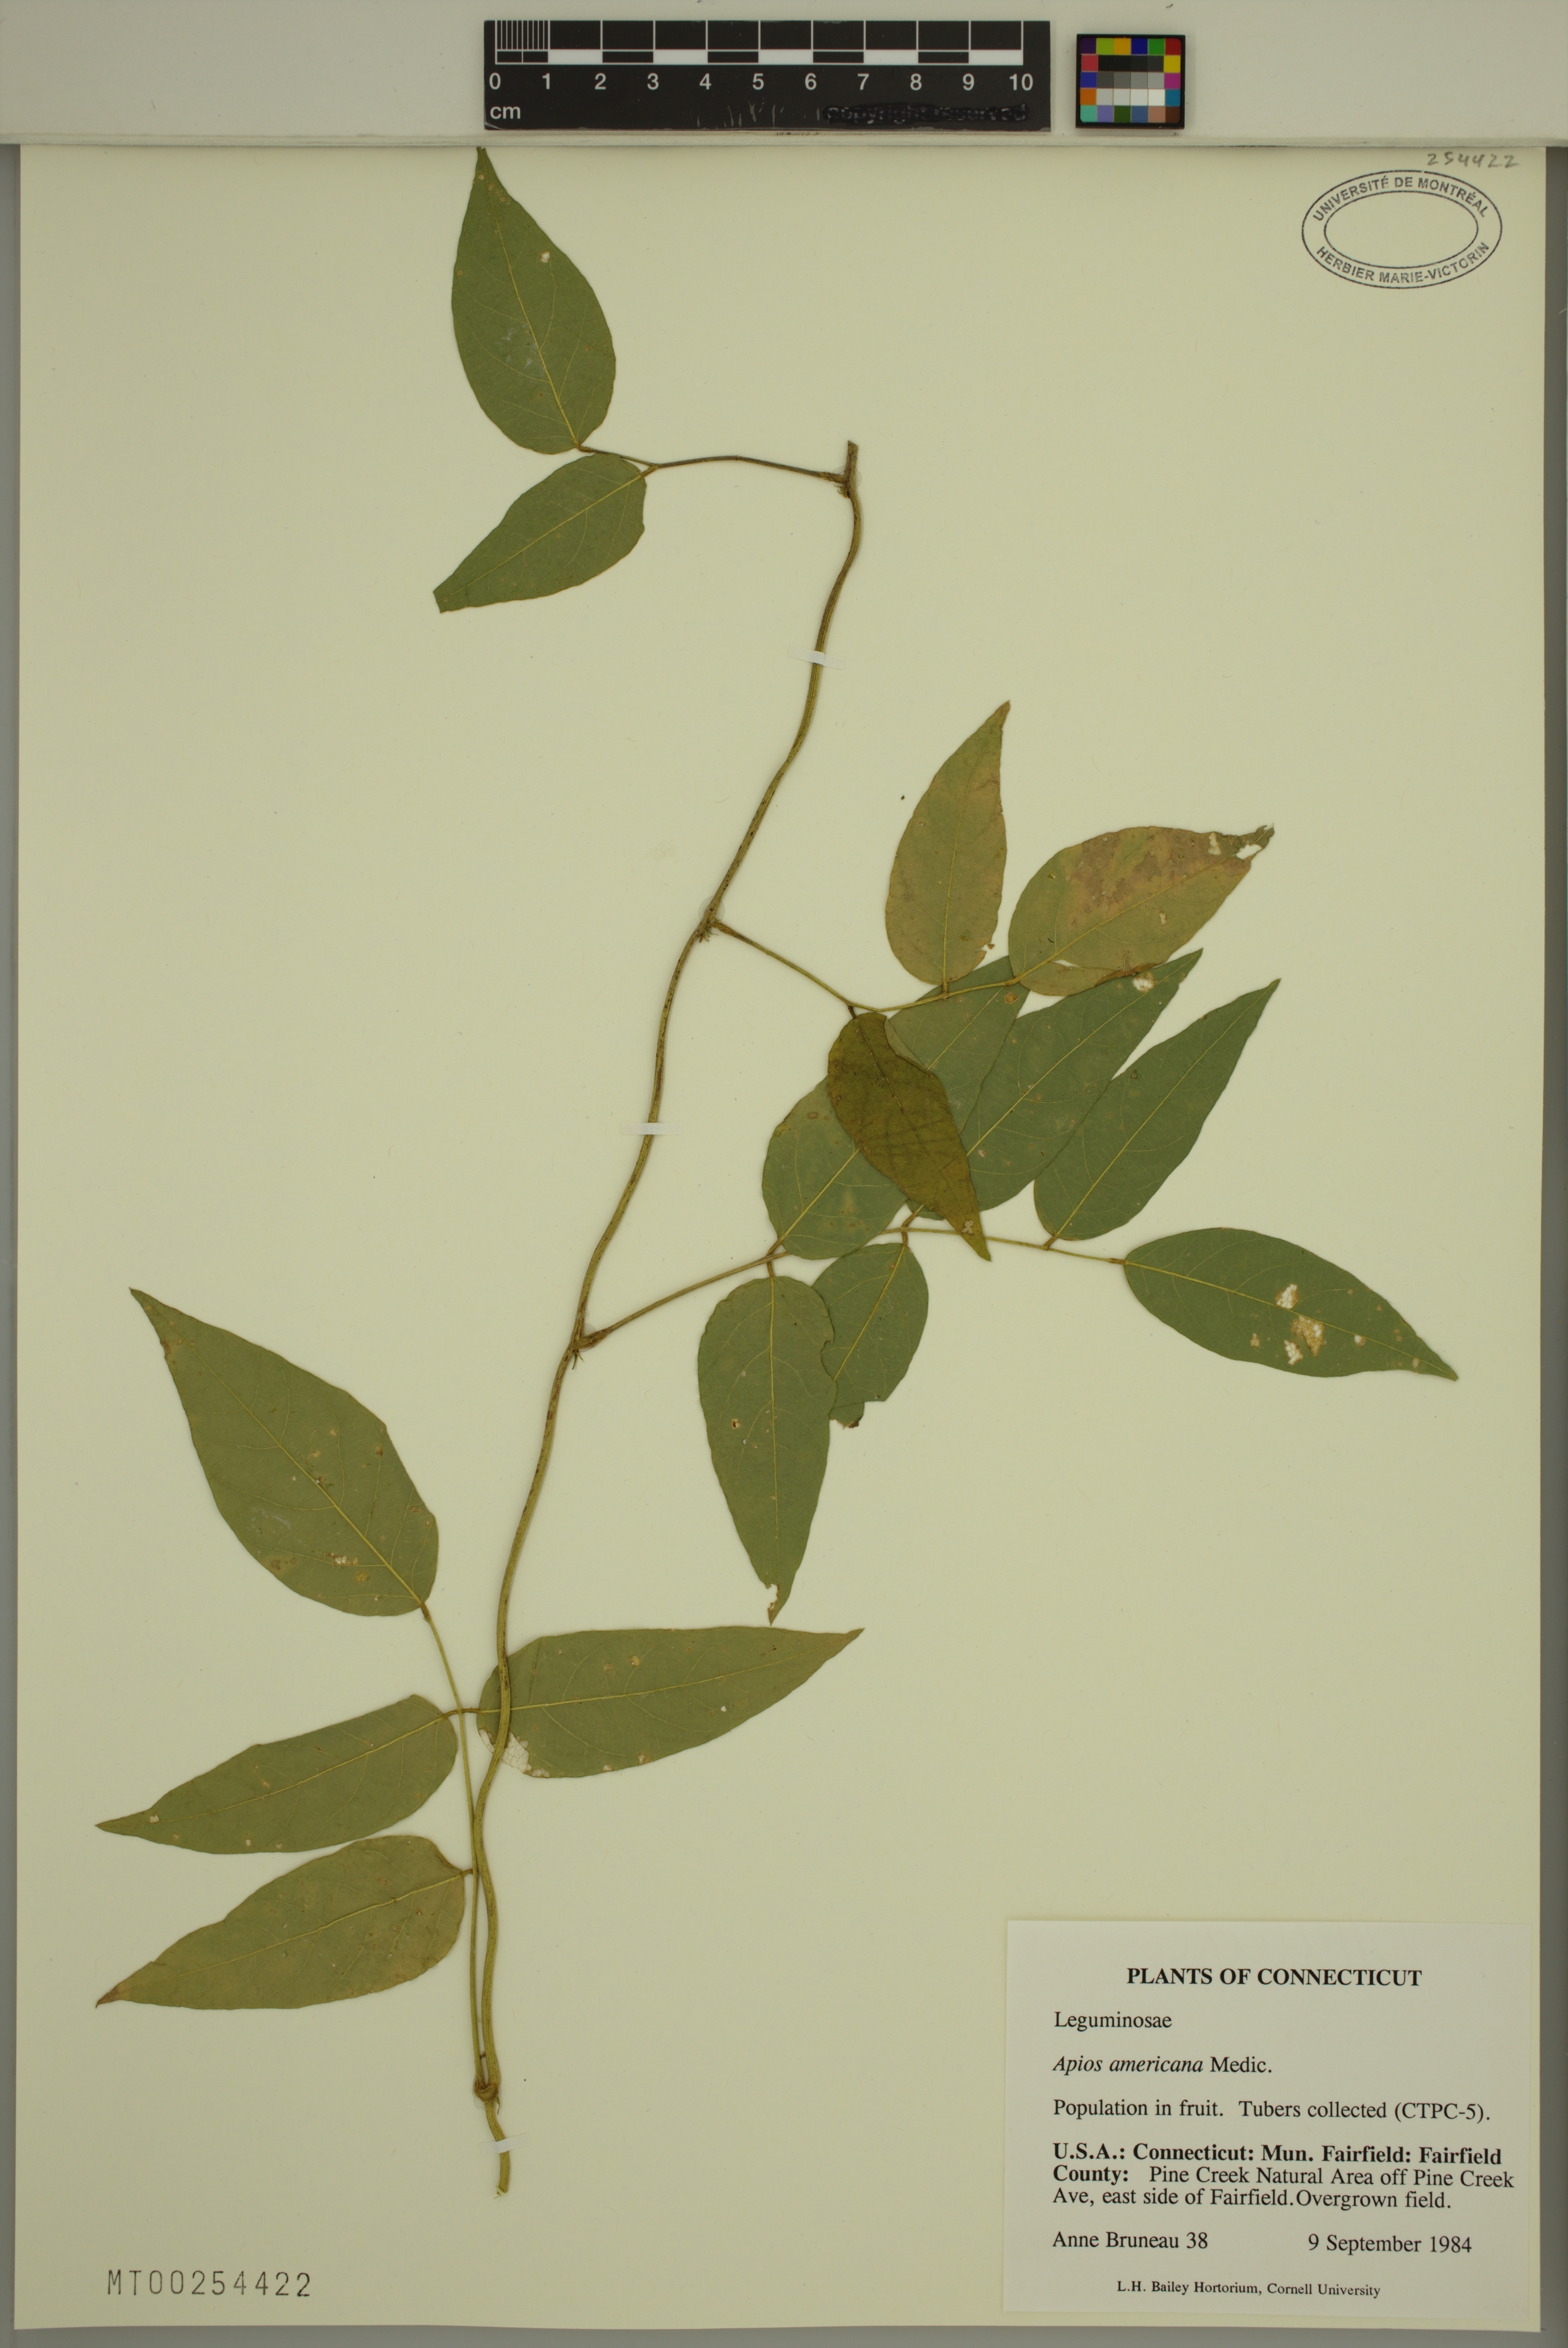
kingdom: Plantae
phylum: Tracheophyta
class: Magnoliopsida
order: Fabales
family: Fabaceae
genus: Apios
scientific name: Apios americana
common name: American potato-bean
